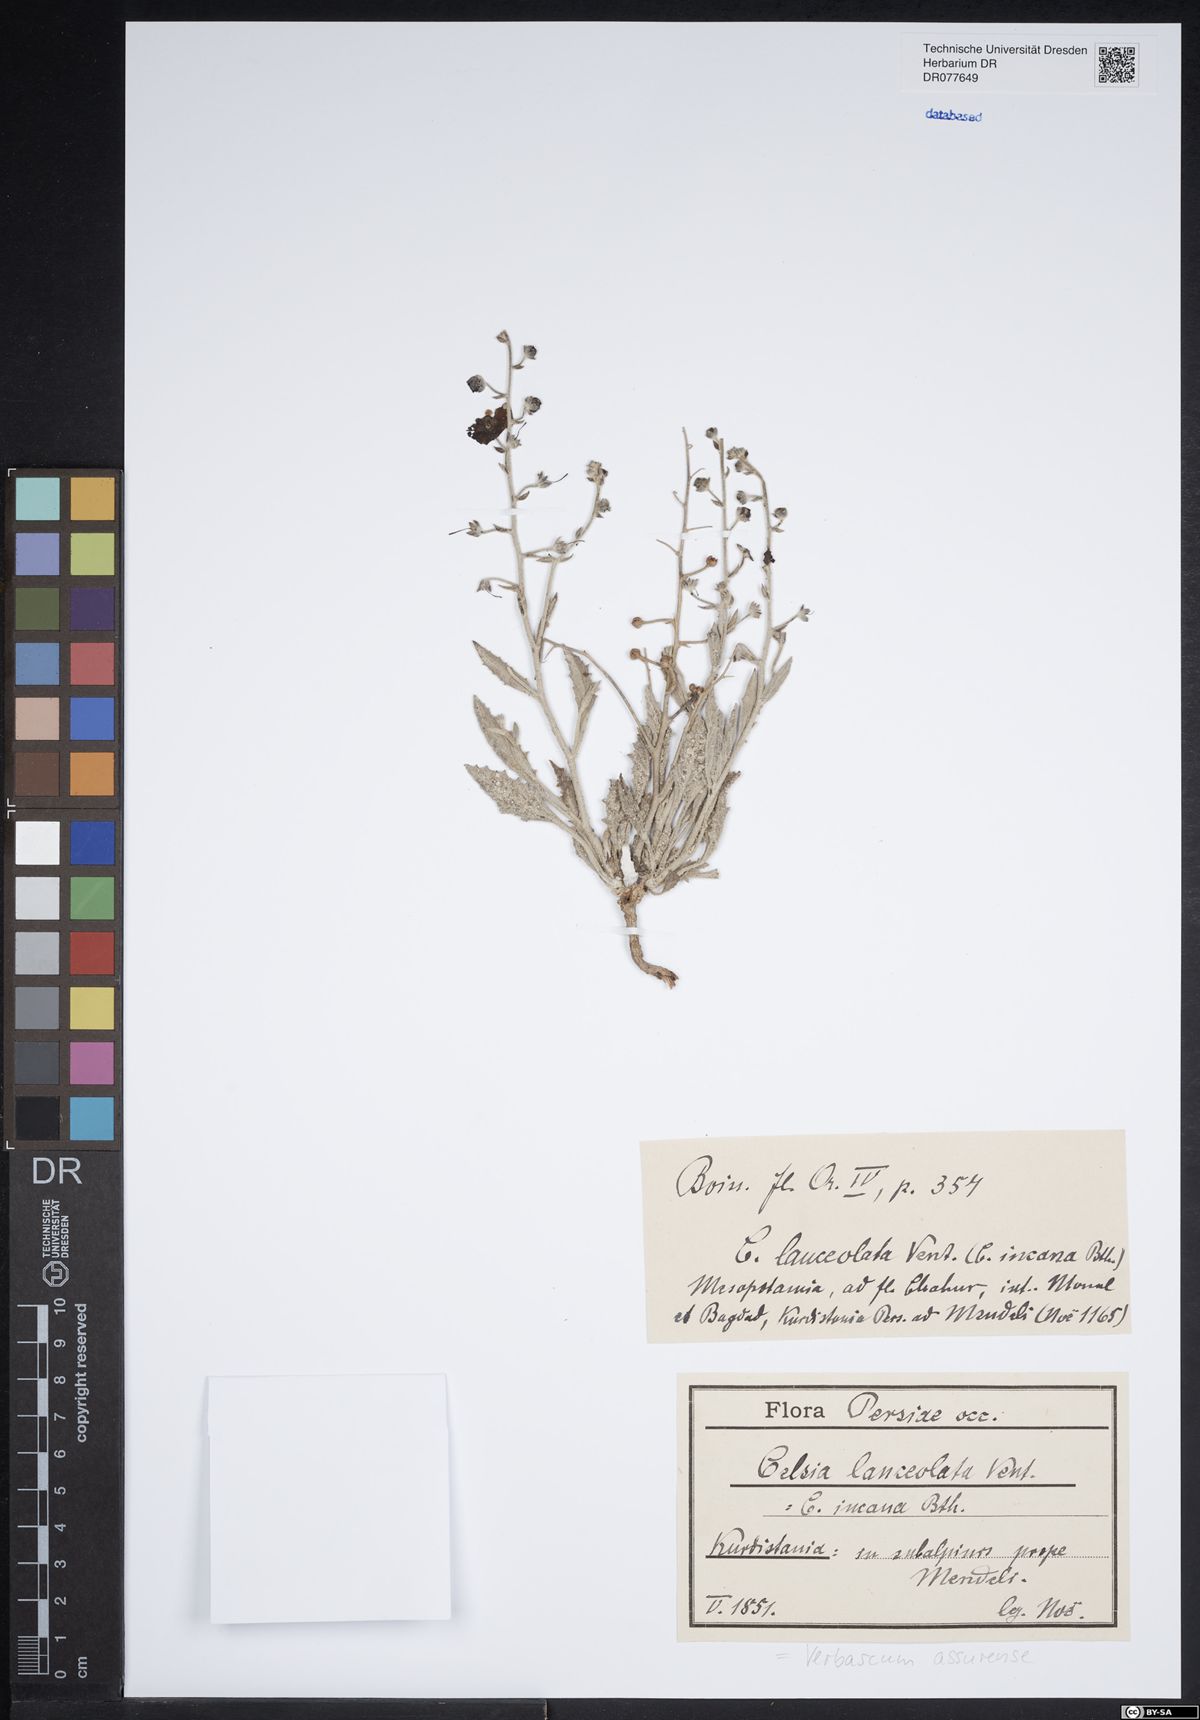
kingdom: Plantae
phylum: Tracheophyta
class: Magnoliopsida
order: Lamiales
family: Scrophulariaceae
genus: Verbascum
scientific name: Verbascum assurense
